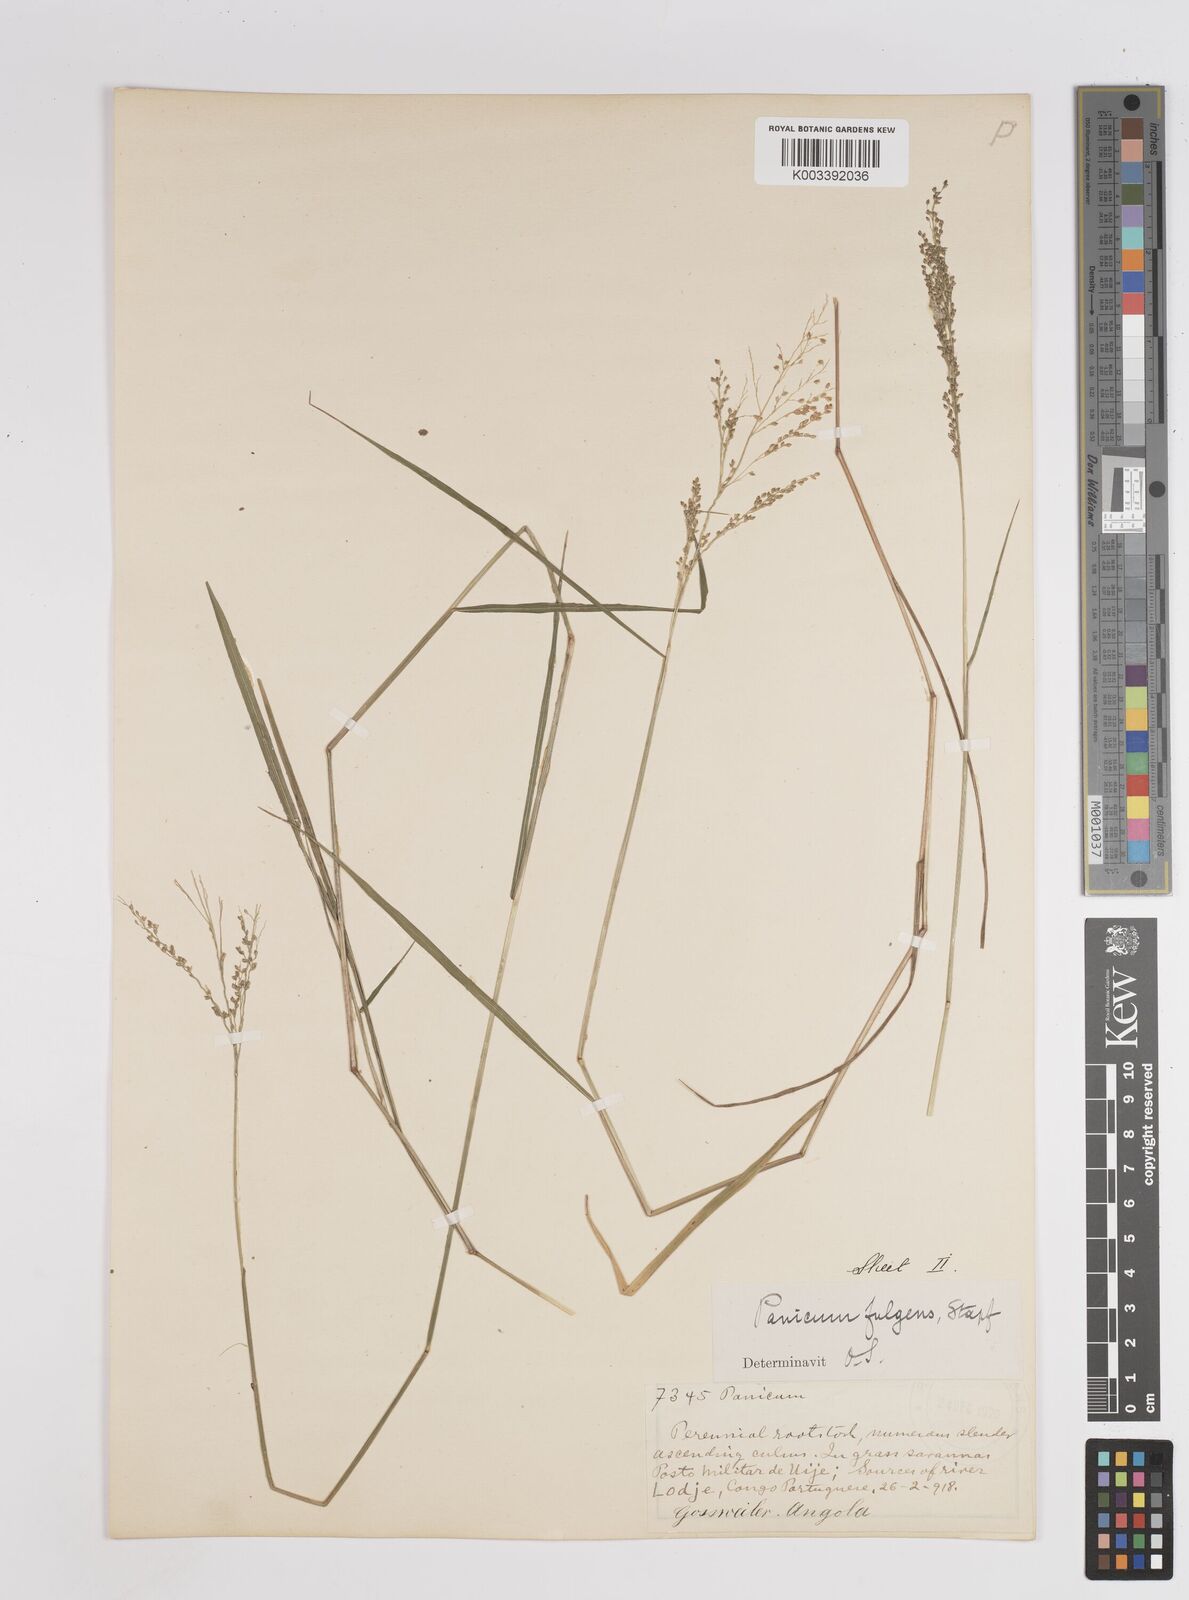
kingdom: Plantae
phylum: Tracheophyta
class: Liliopsida
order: Poales
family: Poaceae
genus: Trichanthecium
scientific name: Trichanthecium nervatum
